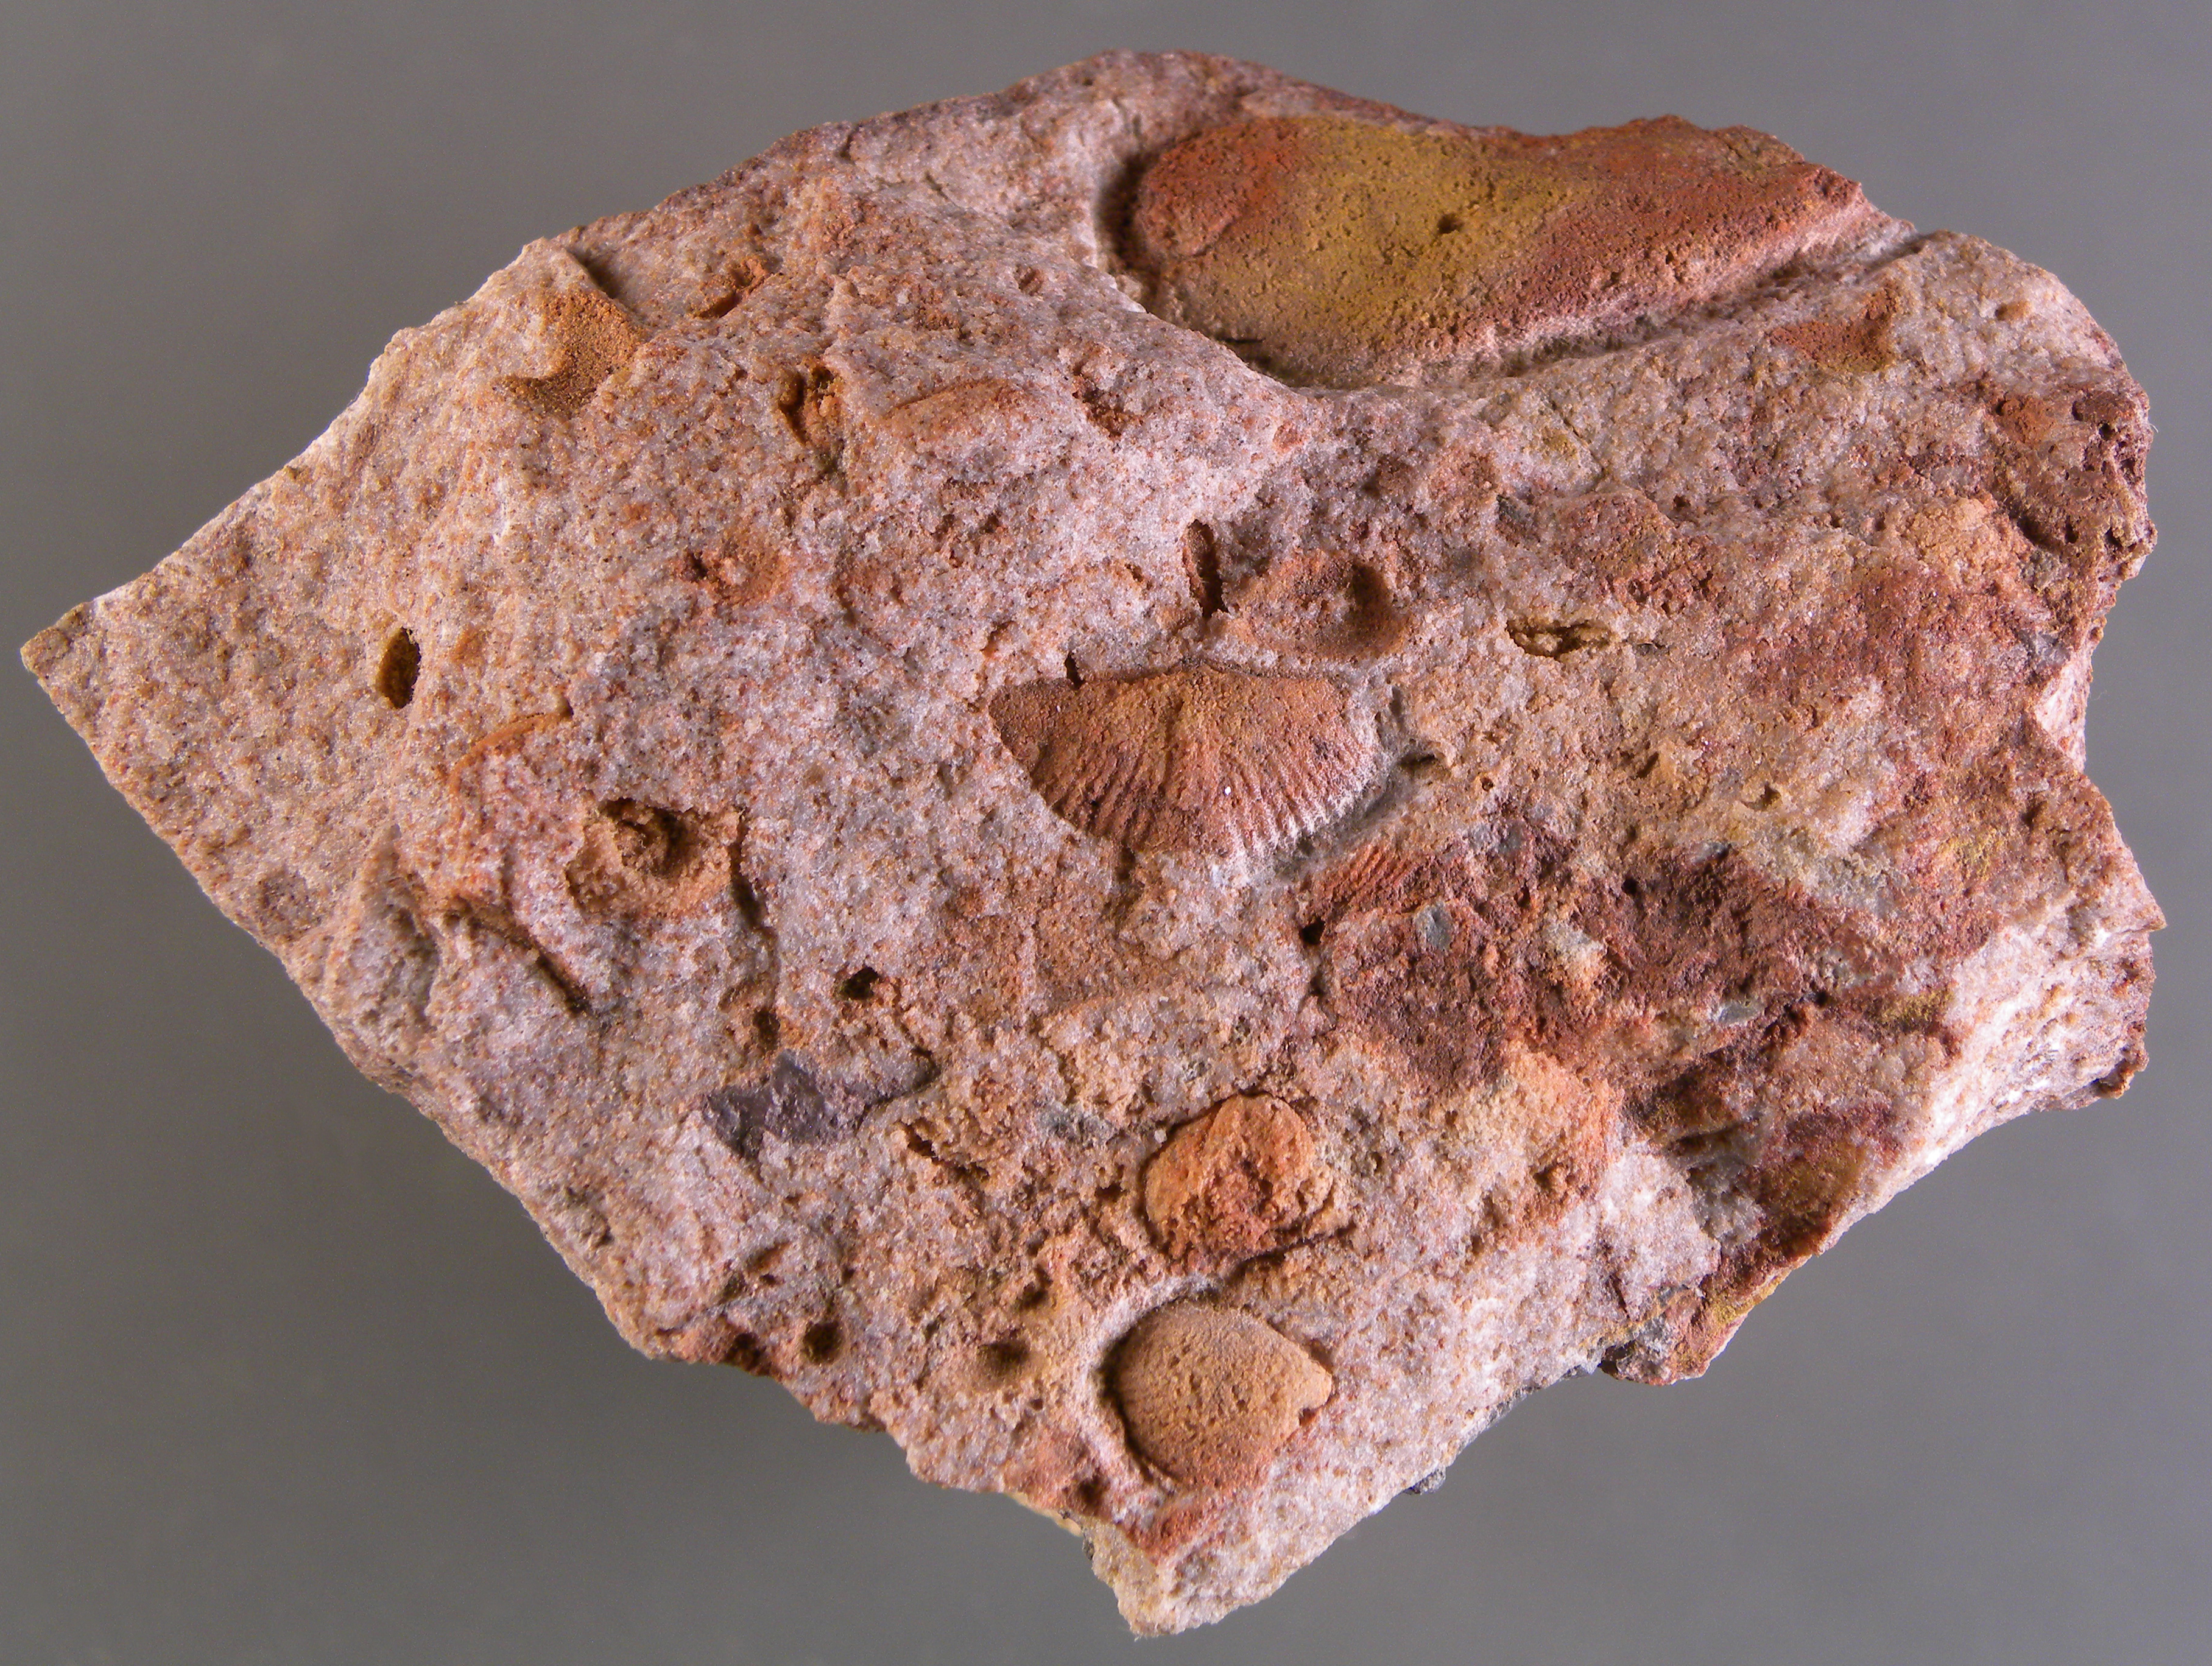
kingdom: Animalia
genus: Koenenia
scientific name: Koenenia
